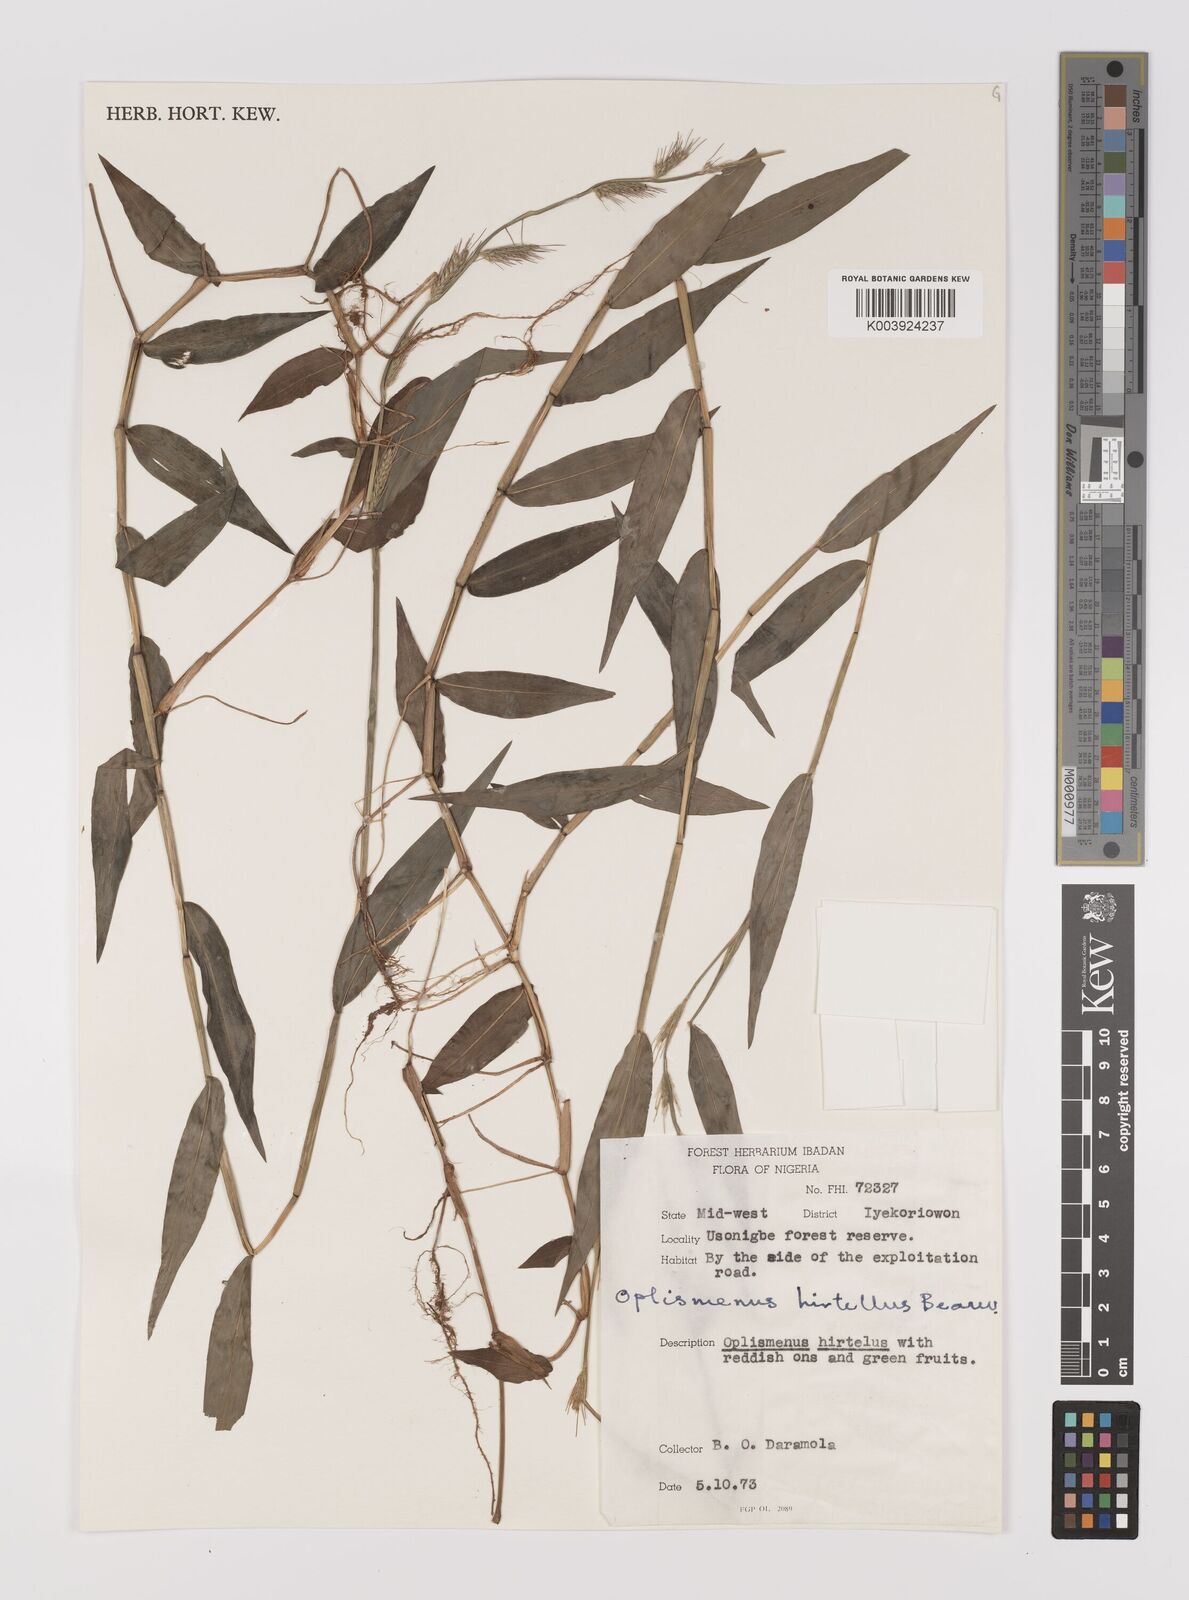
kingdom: Plantae
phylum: Tracheophyta
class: Liliopsida
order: Poales
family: Poaceae
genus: Oplismenus
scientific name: Oplismenus hirtellus
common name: Basketgrass
